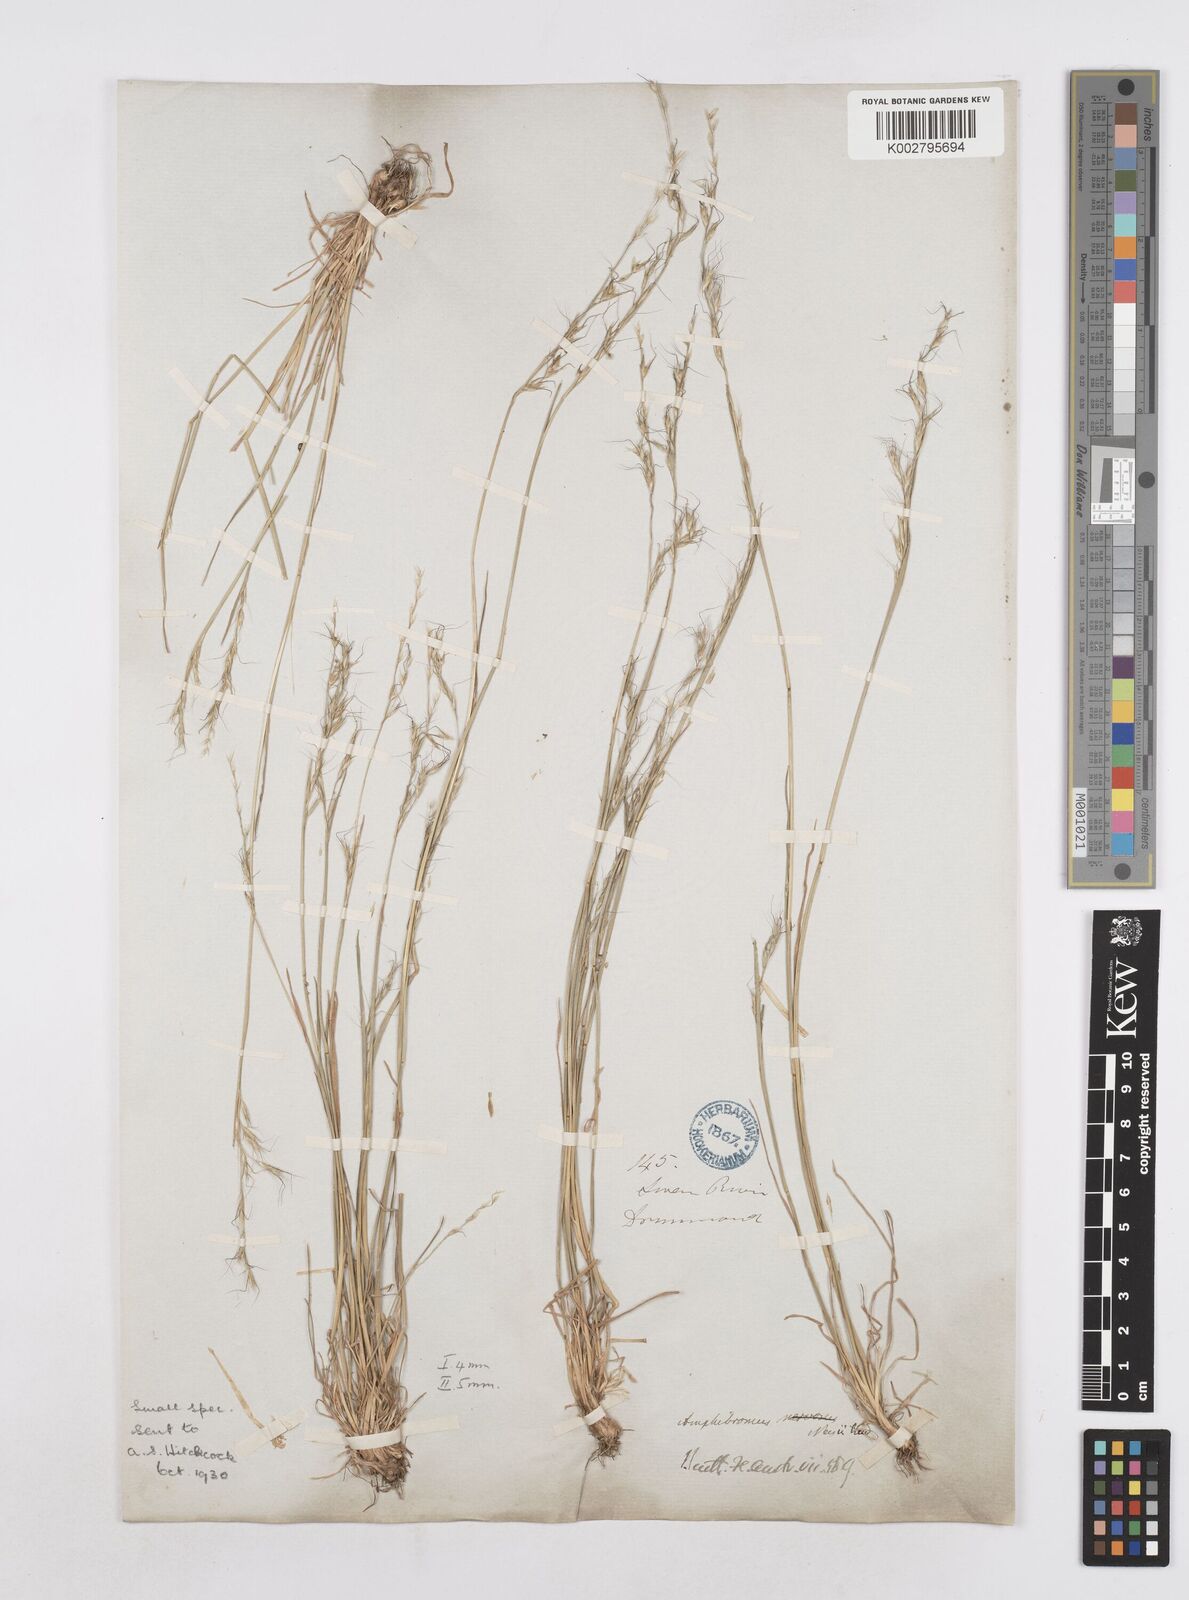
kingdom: Plantae
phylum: Tracheophyta
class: Liliopsida
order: Poales
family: Poaceae
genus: Amphibromus
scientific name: Amphibromus neesii
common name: Australian wallaby grass
